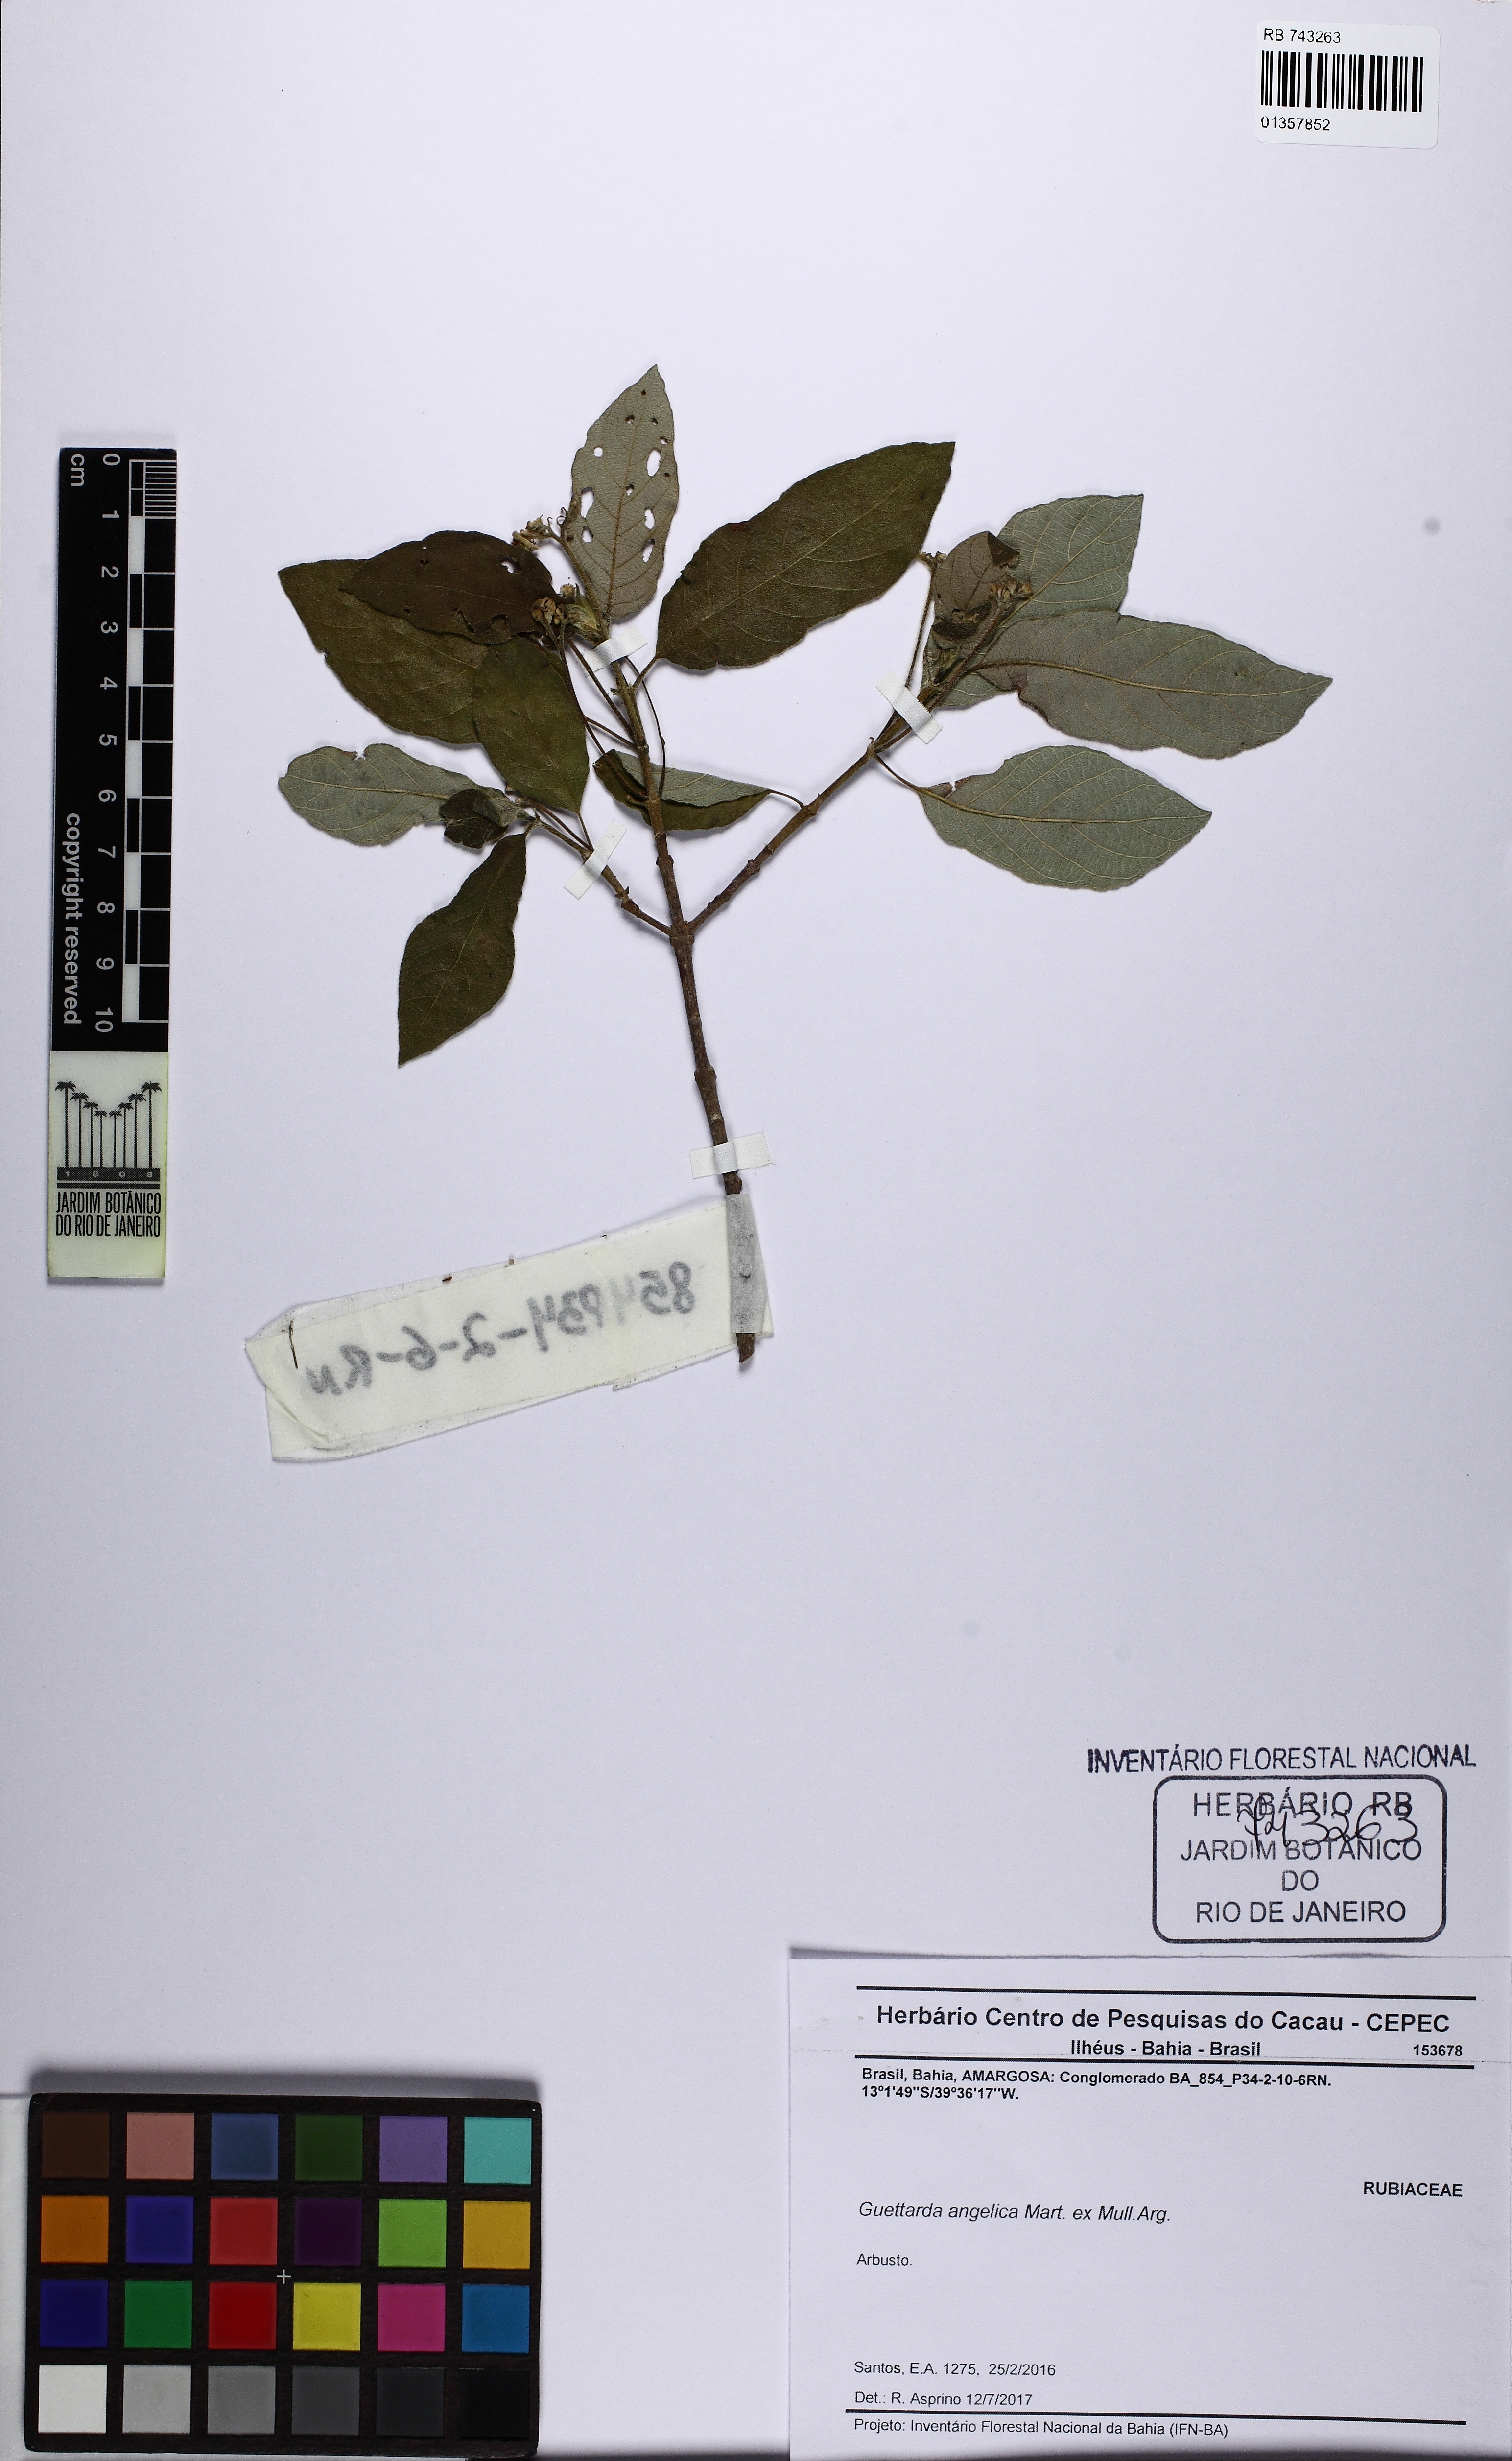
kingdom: Plantae
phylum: Tracheophyta
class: Magnoliopsida
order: Gentianales
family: Rubiaceae
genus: Guettarda
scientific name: Guettarda angelica
